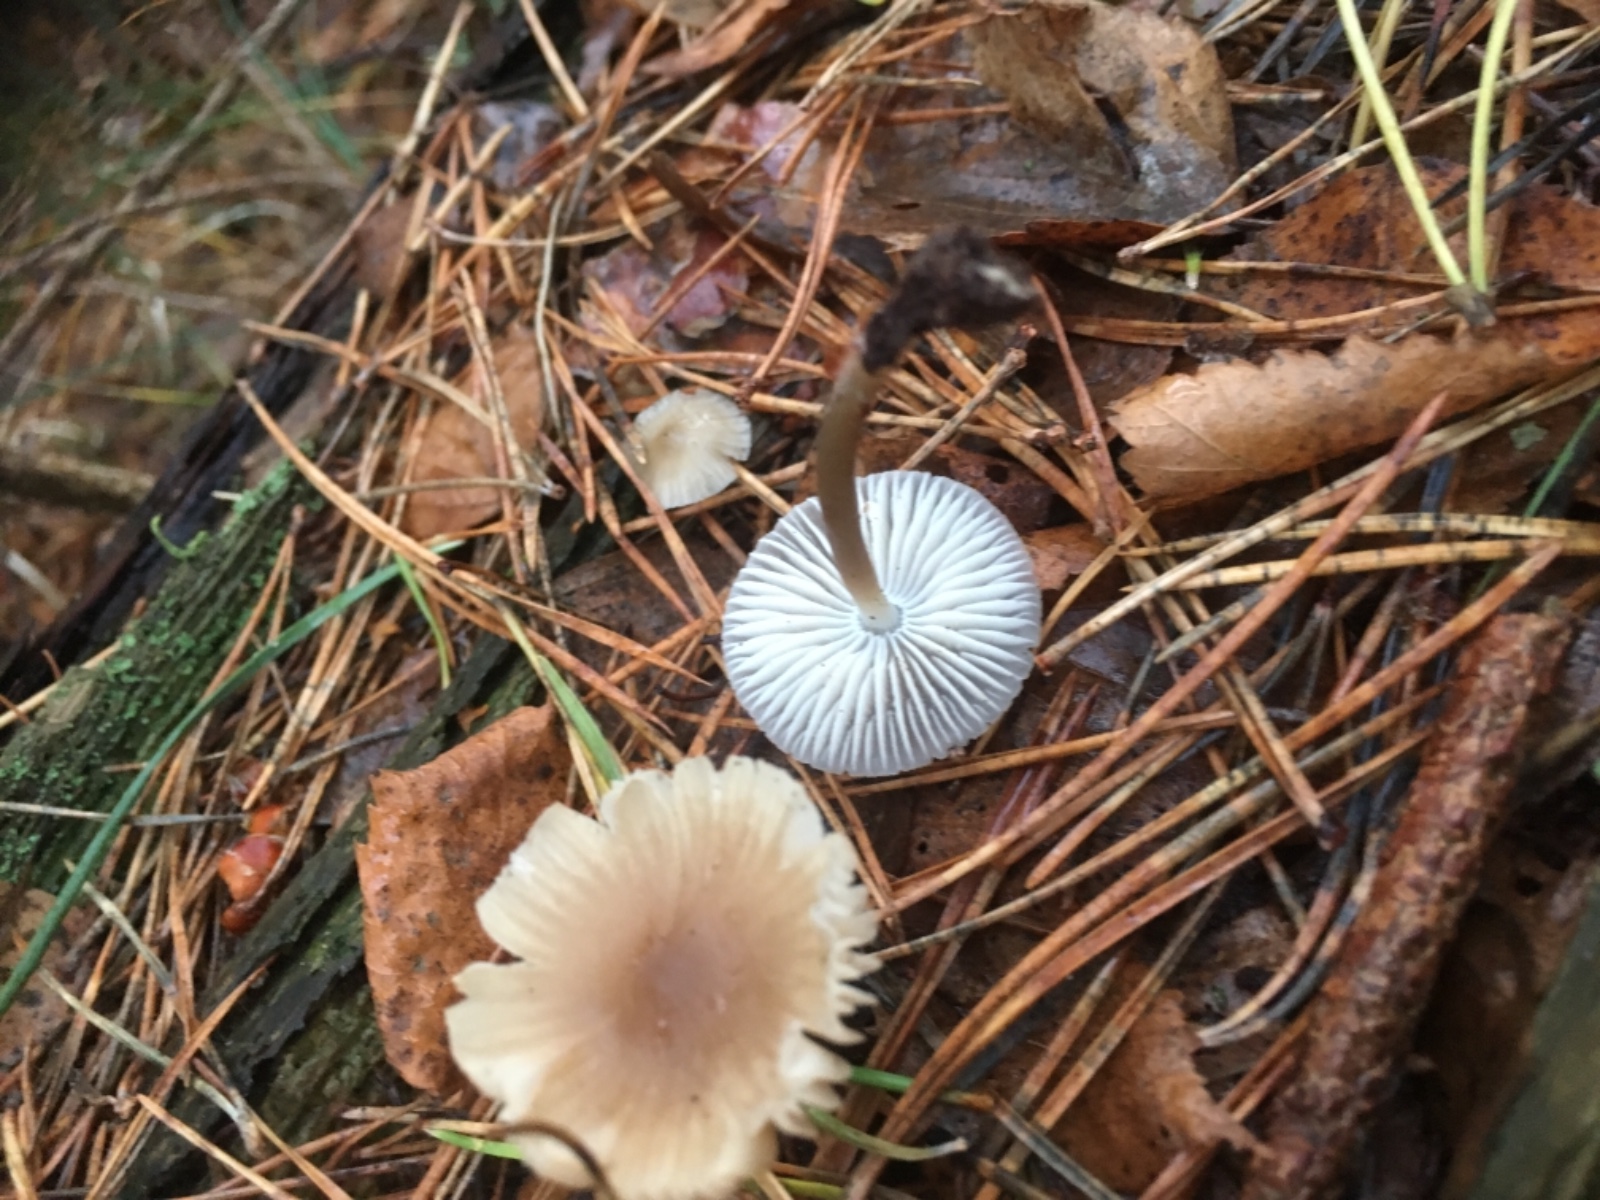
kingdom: Fungi
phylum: Basidiomycota
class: Agaricomycetes
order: Agaricales
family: Mycenaceae
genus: Mycena
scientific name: Mycena
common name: huesvamp
